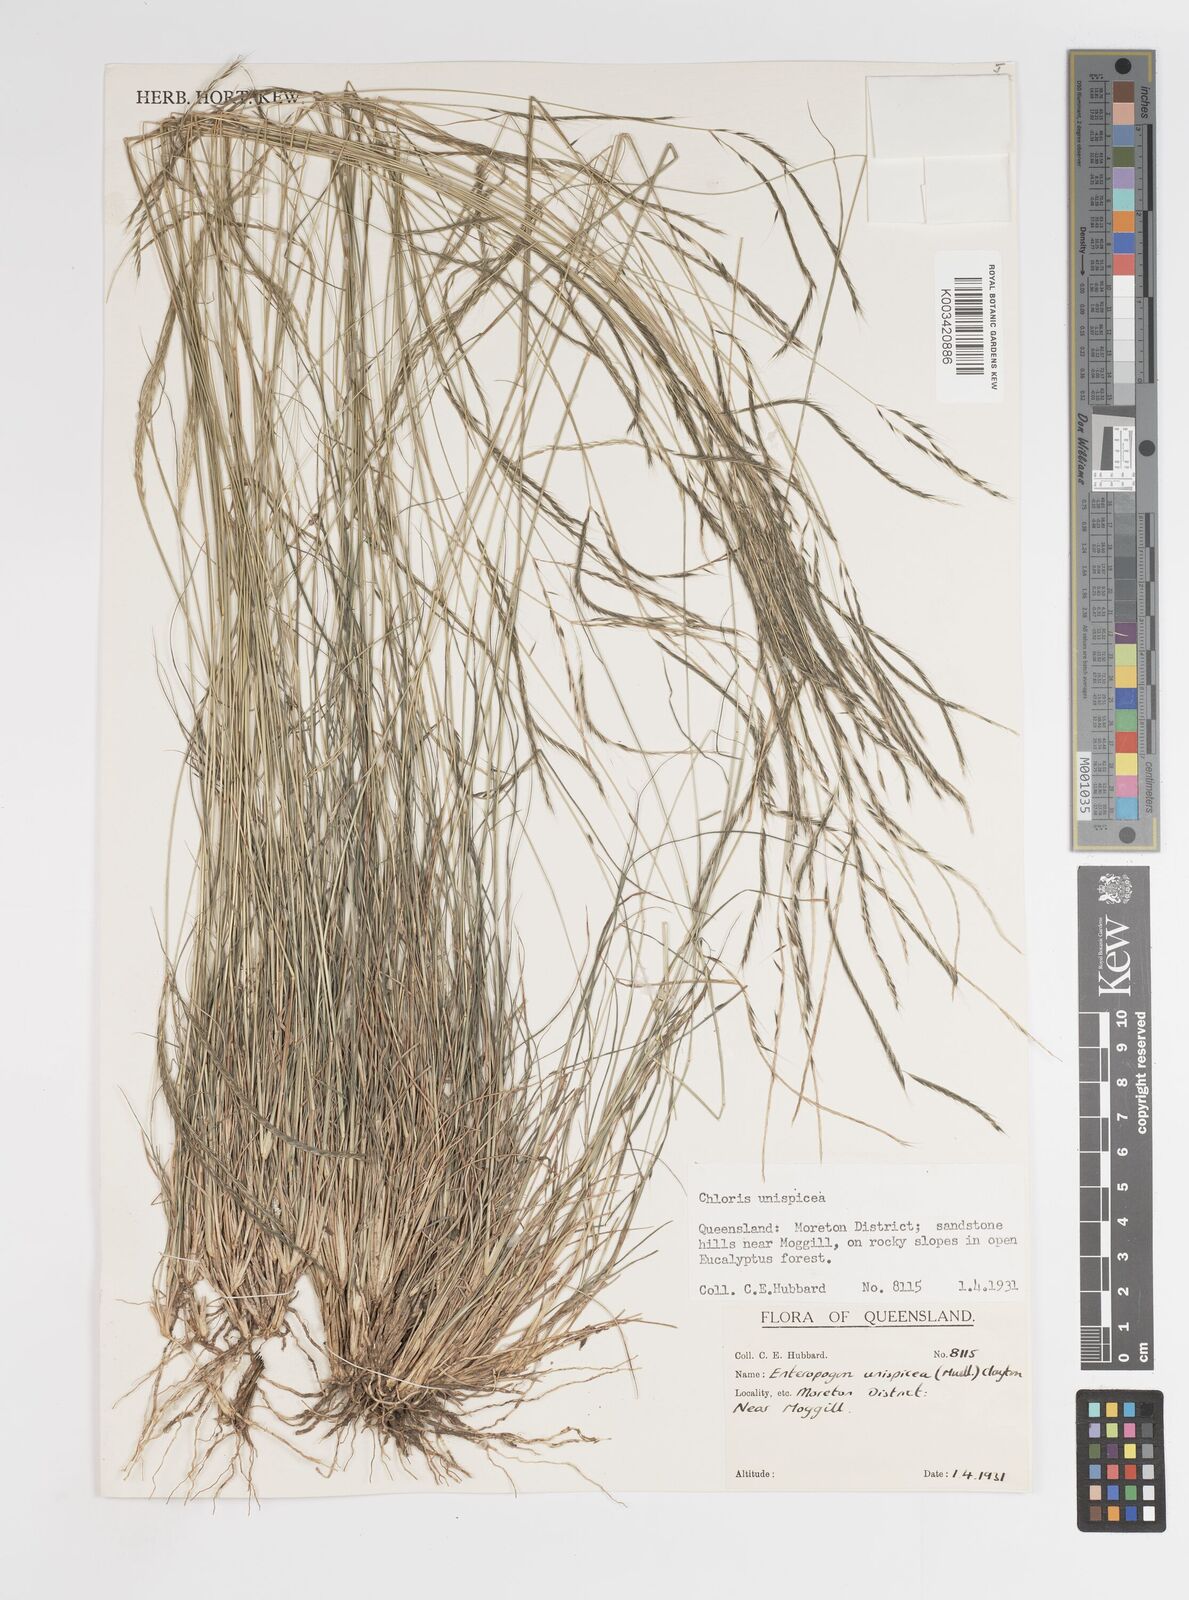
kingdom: Plantae
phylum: Tracheophyta
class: Liliopsida
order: Poales
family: Poaceae
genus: Enteropogon
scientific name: Enteropogon paucispiceus
